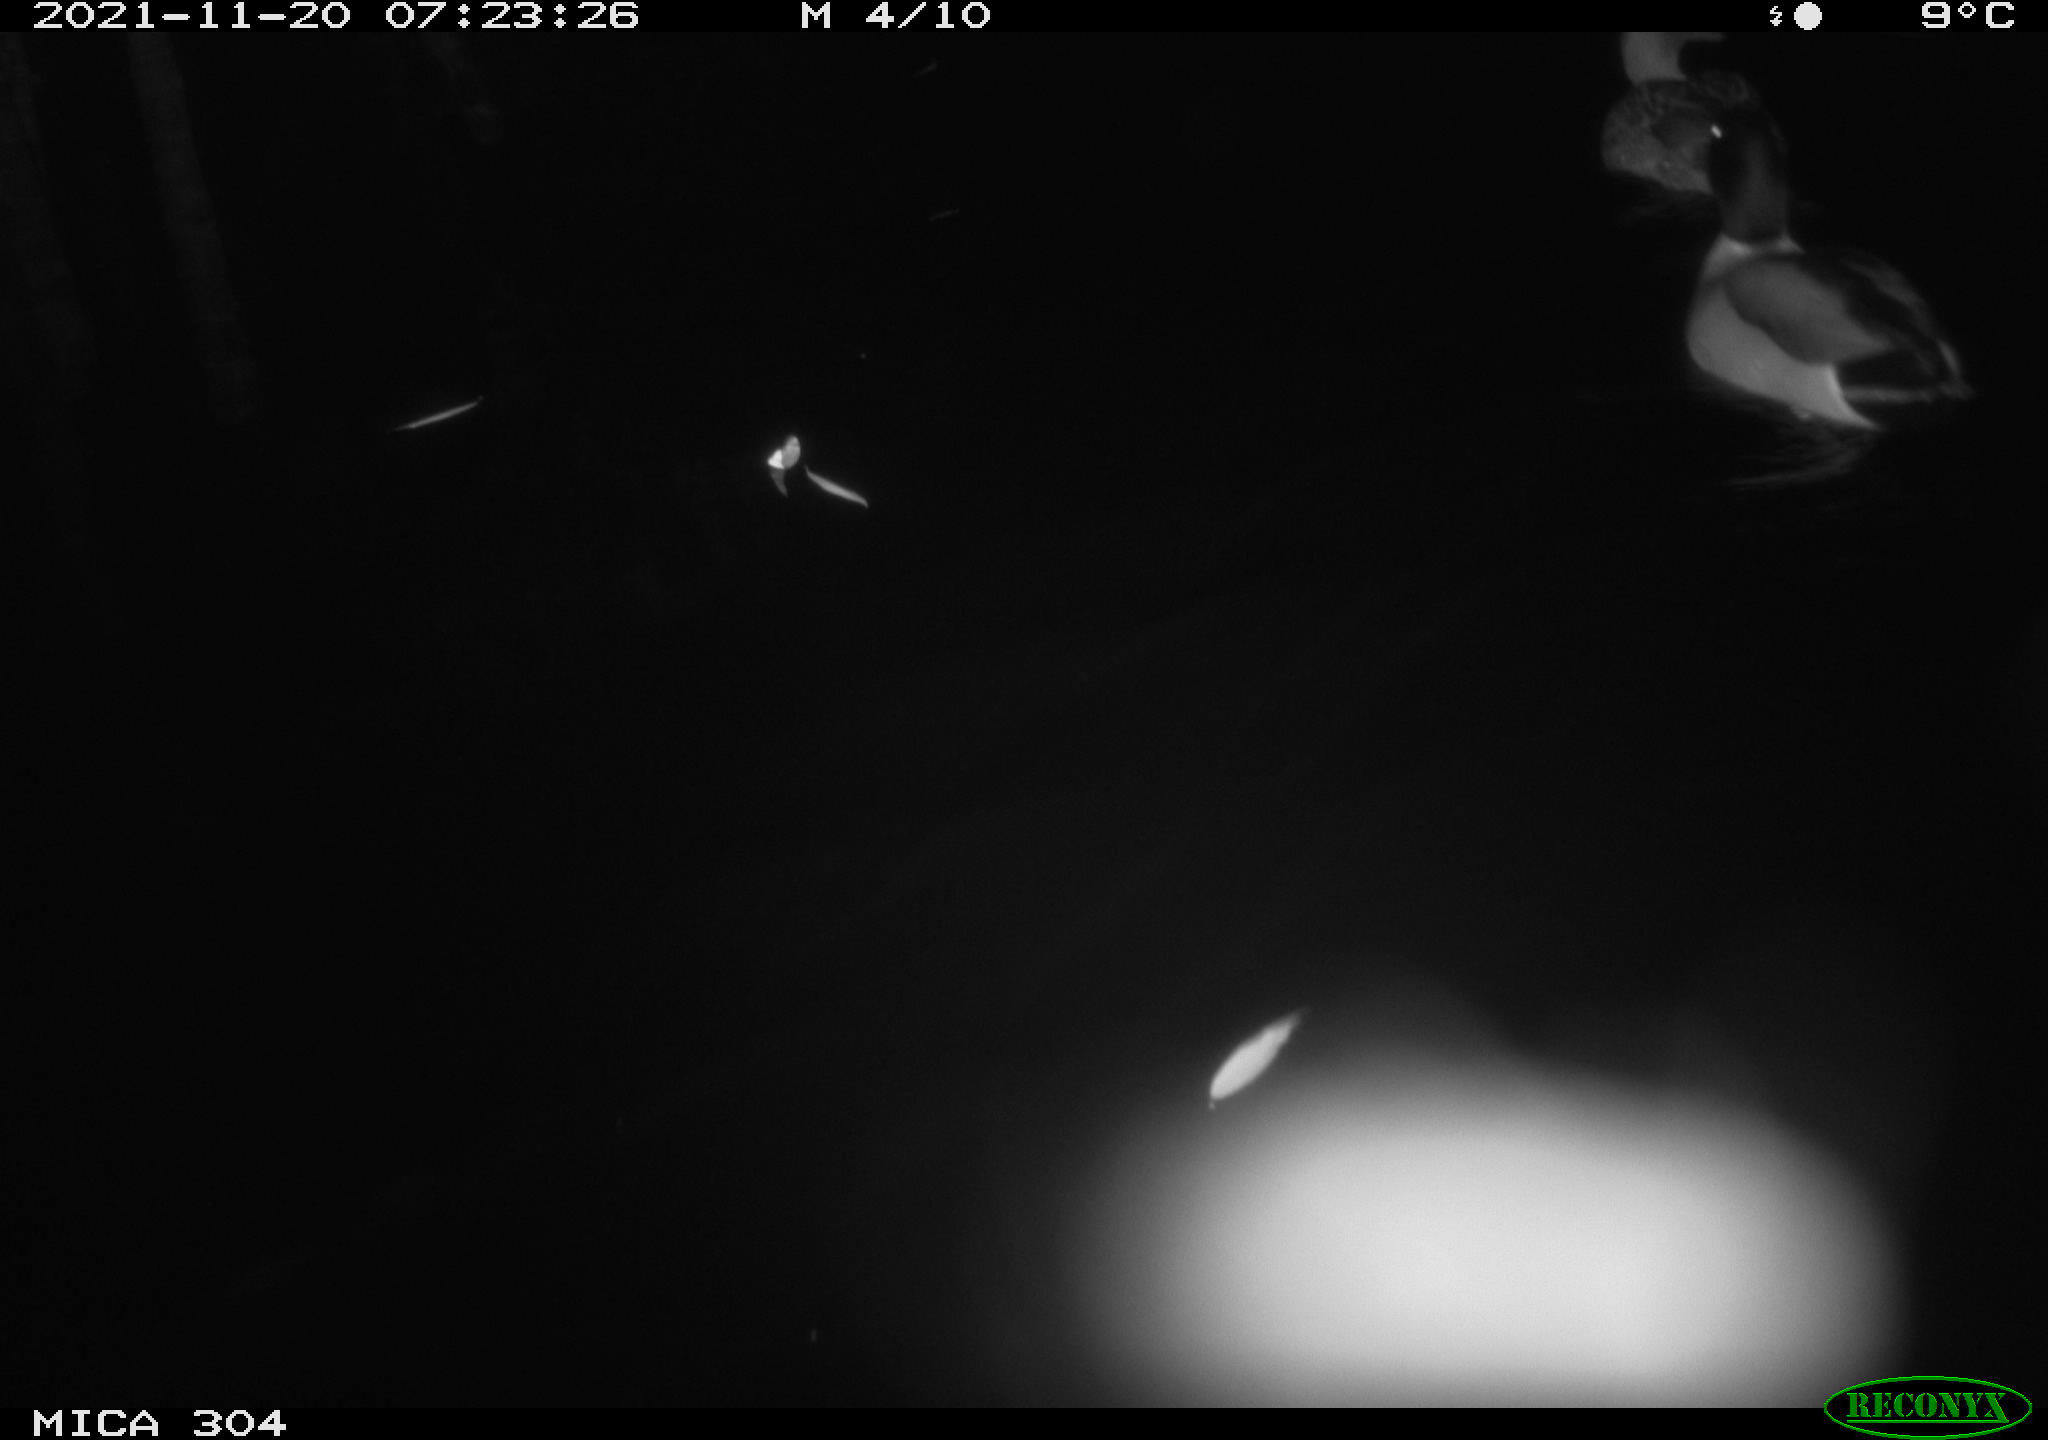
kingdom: Animalia
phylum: Chordata
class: Aves
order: Anseriformes
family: Anatidae
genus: Anas
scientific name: Anas platyrhynchos
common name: Mallard
